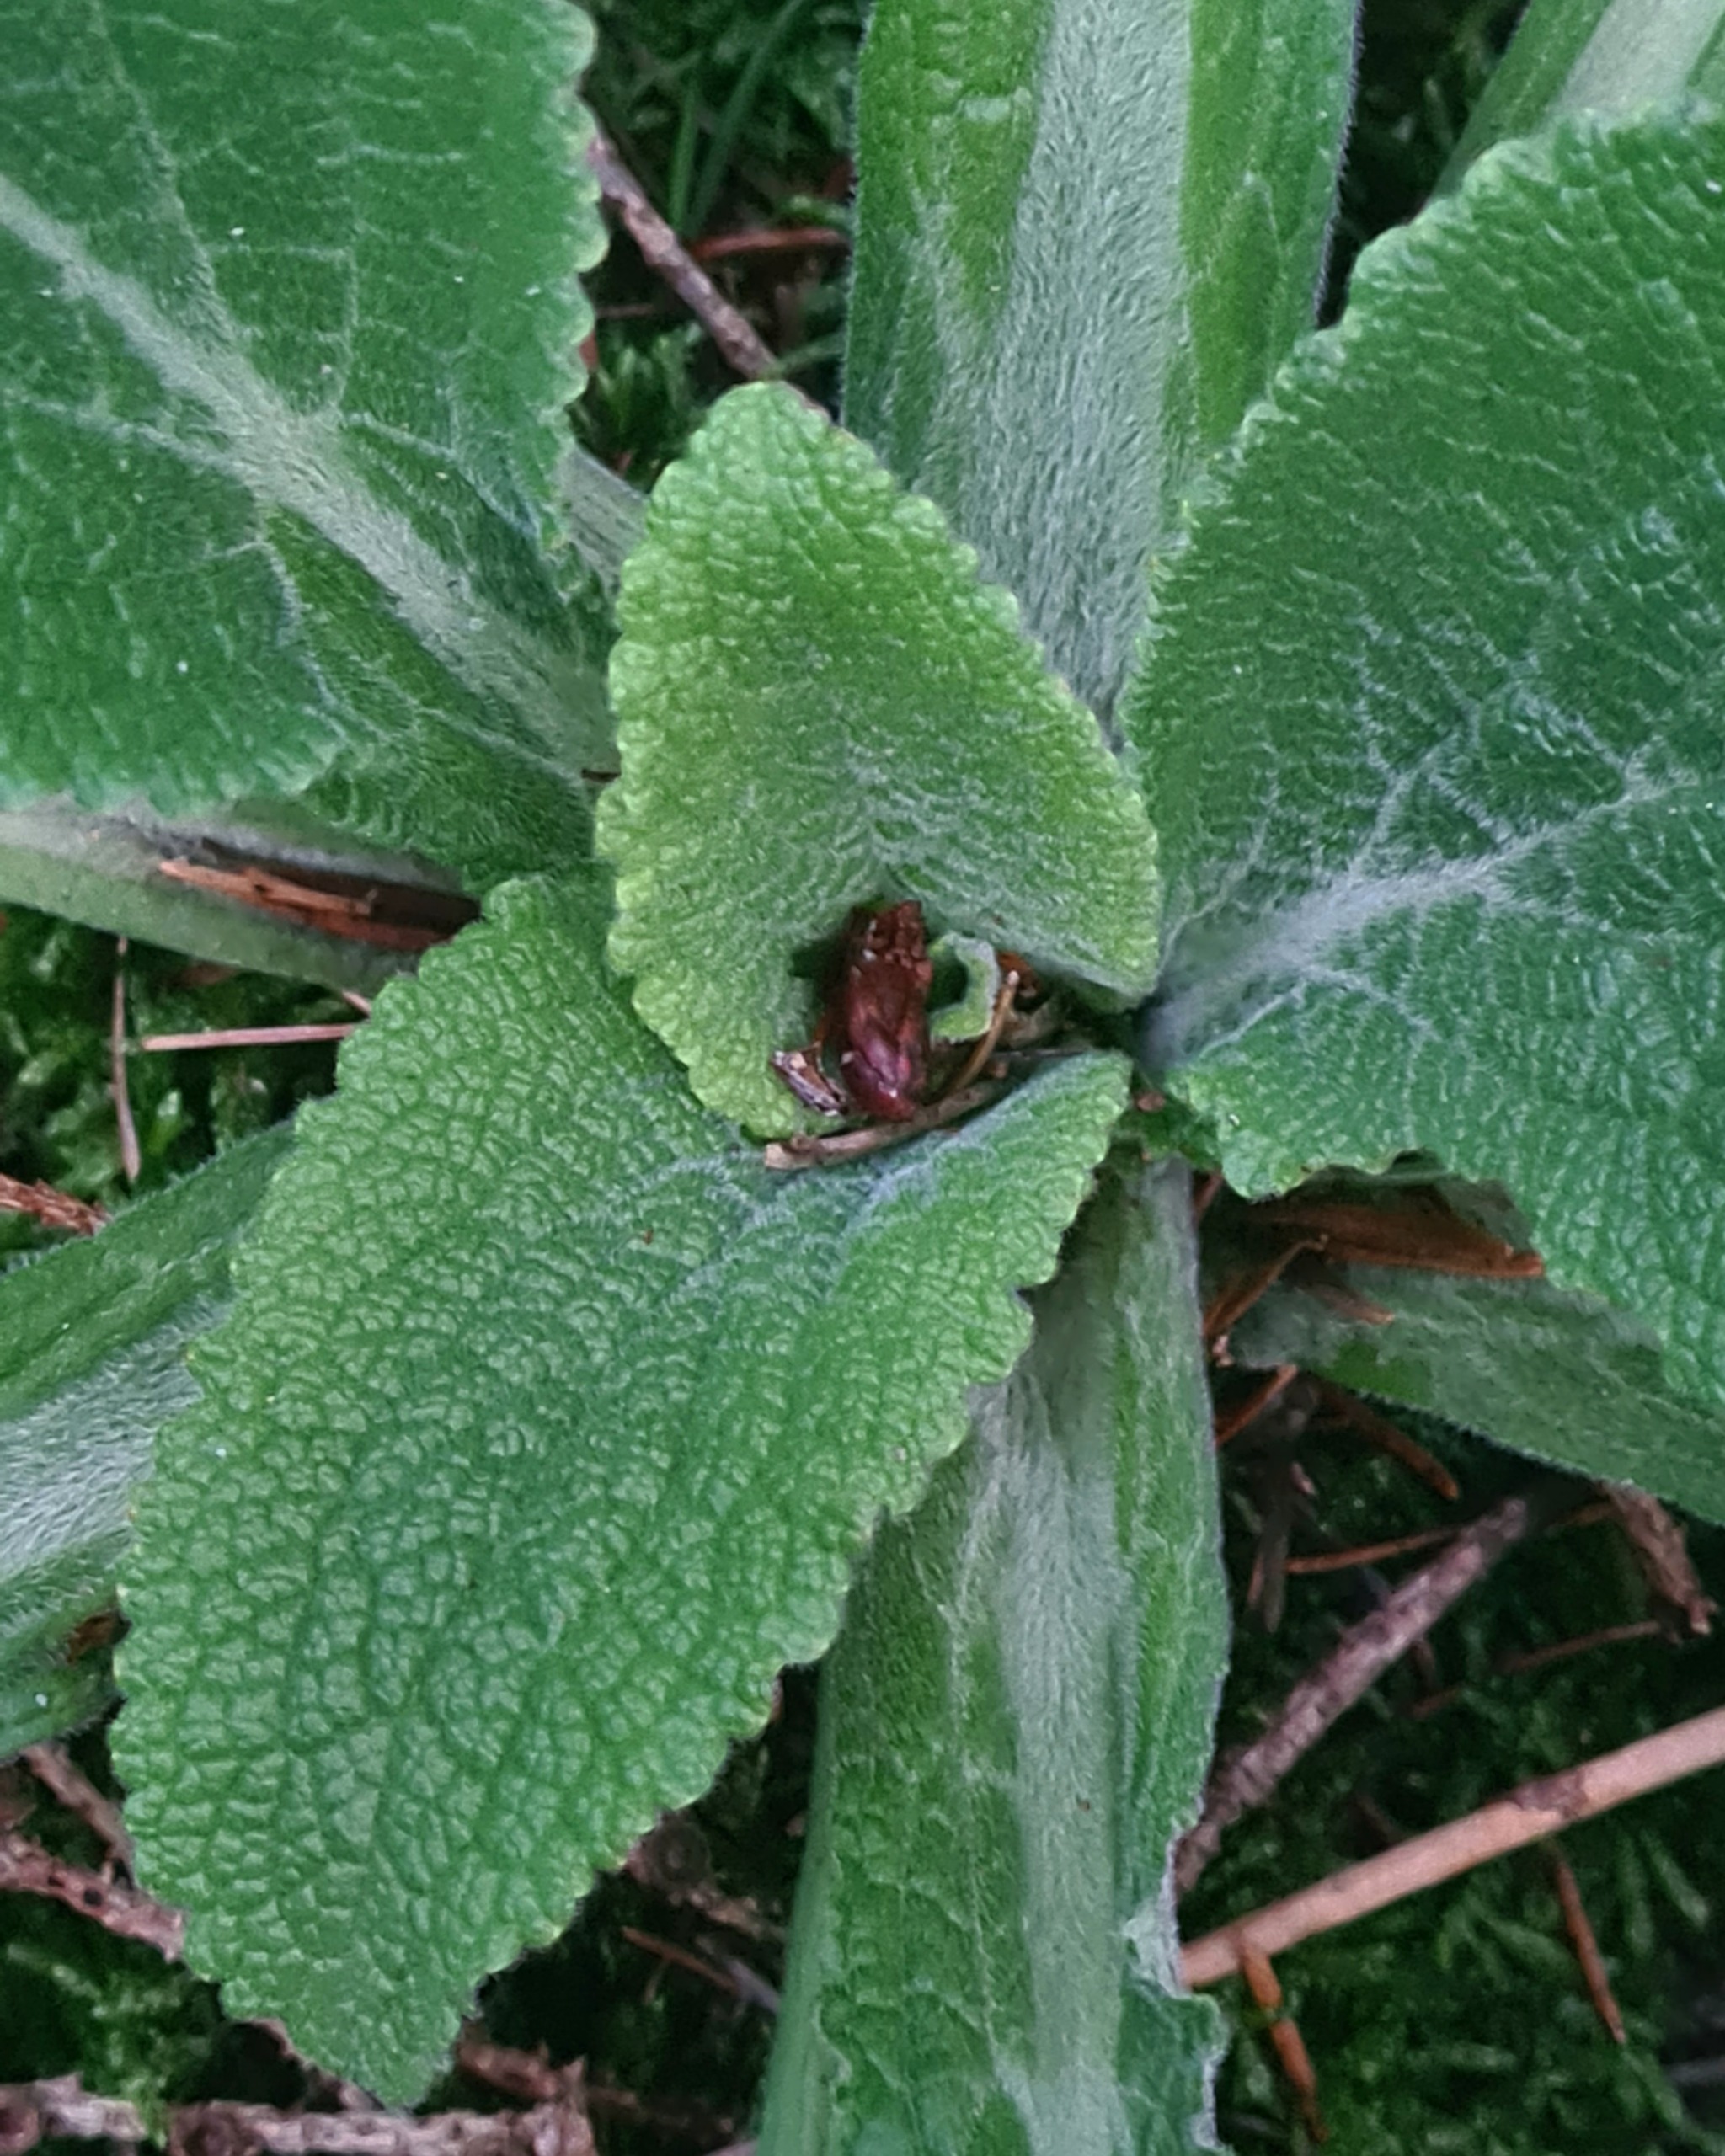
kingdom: Plantae
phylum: Tracheophyta
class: Magnoliopsida
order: Lamiales
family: Plantaginaceae
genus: Digitalis
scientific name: Digitalis purpurea
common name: Almindelig fingerbøl
